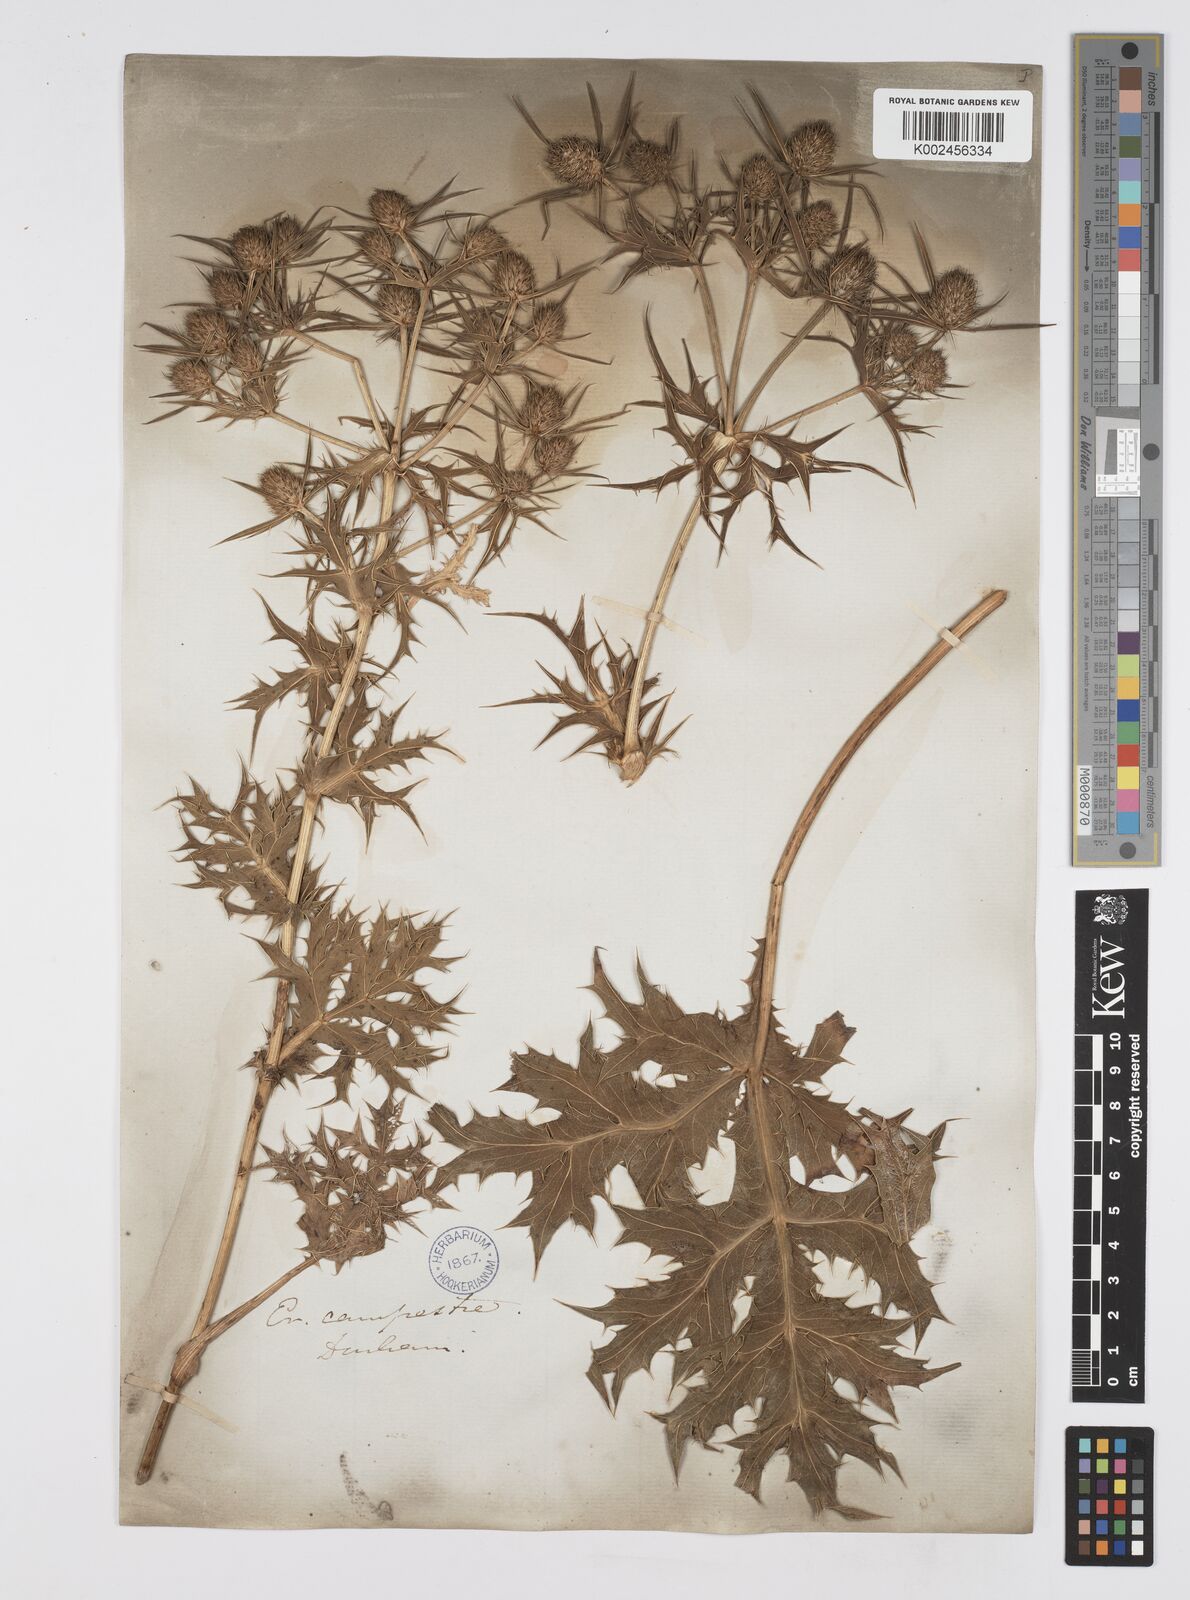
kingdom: Plantae
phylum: Tracheophyta
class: Magnoliopsida
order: Apiales
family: Apiaceae
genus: Eryngium
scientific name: Eryngium campestre
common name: Field eryngo
